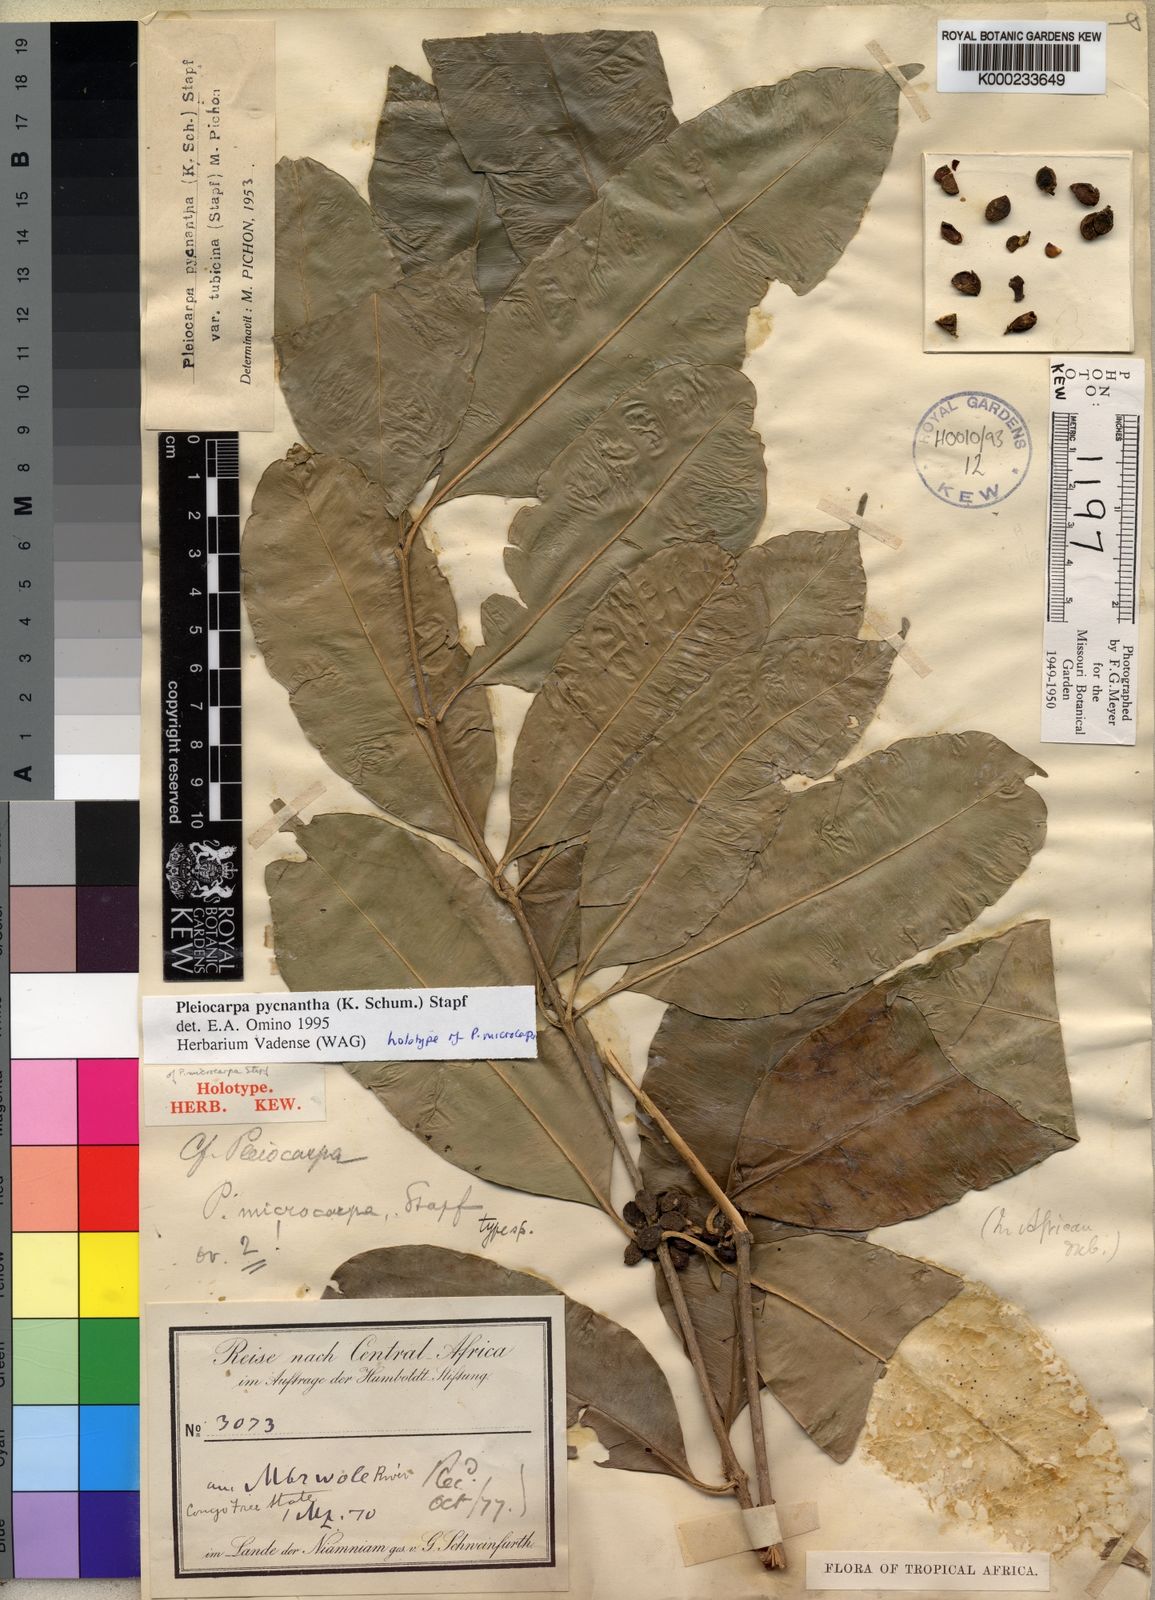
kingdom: Plantae
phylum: Tracheophyta
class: Magnoliopsida
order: Gentianales
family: Apocynaceae
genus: Pleiocarpa
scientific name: Pleiocarpa pycnantha
